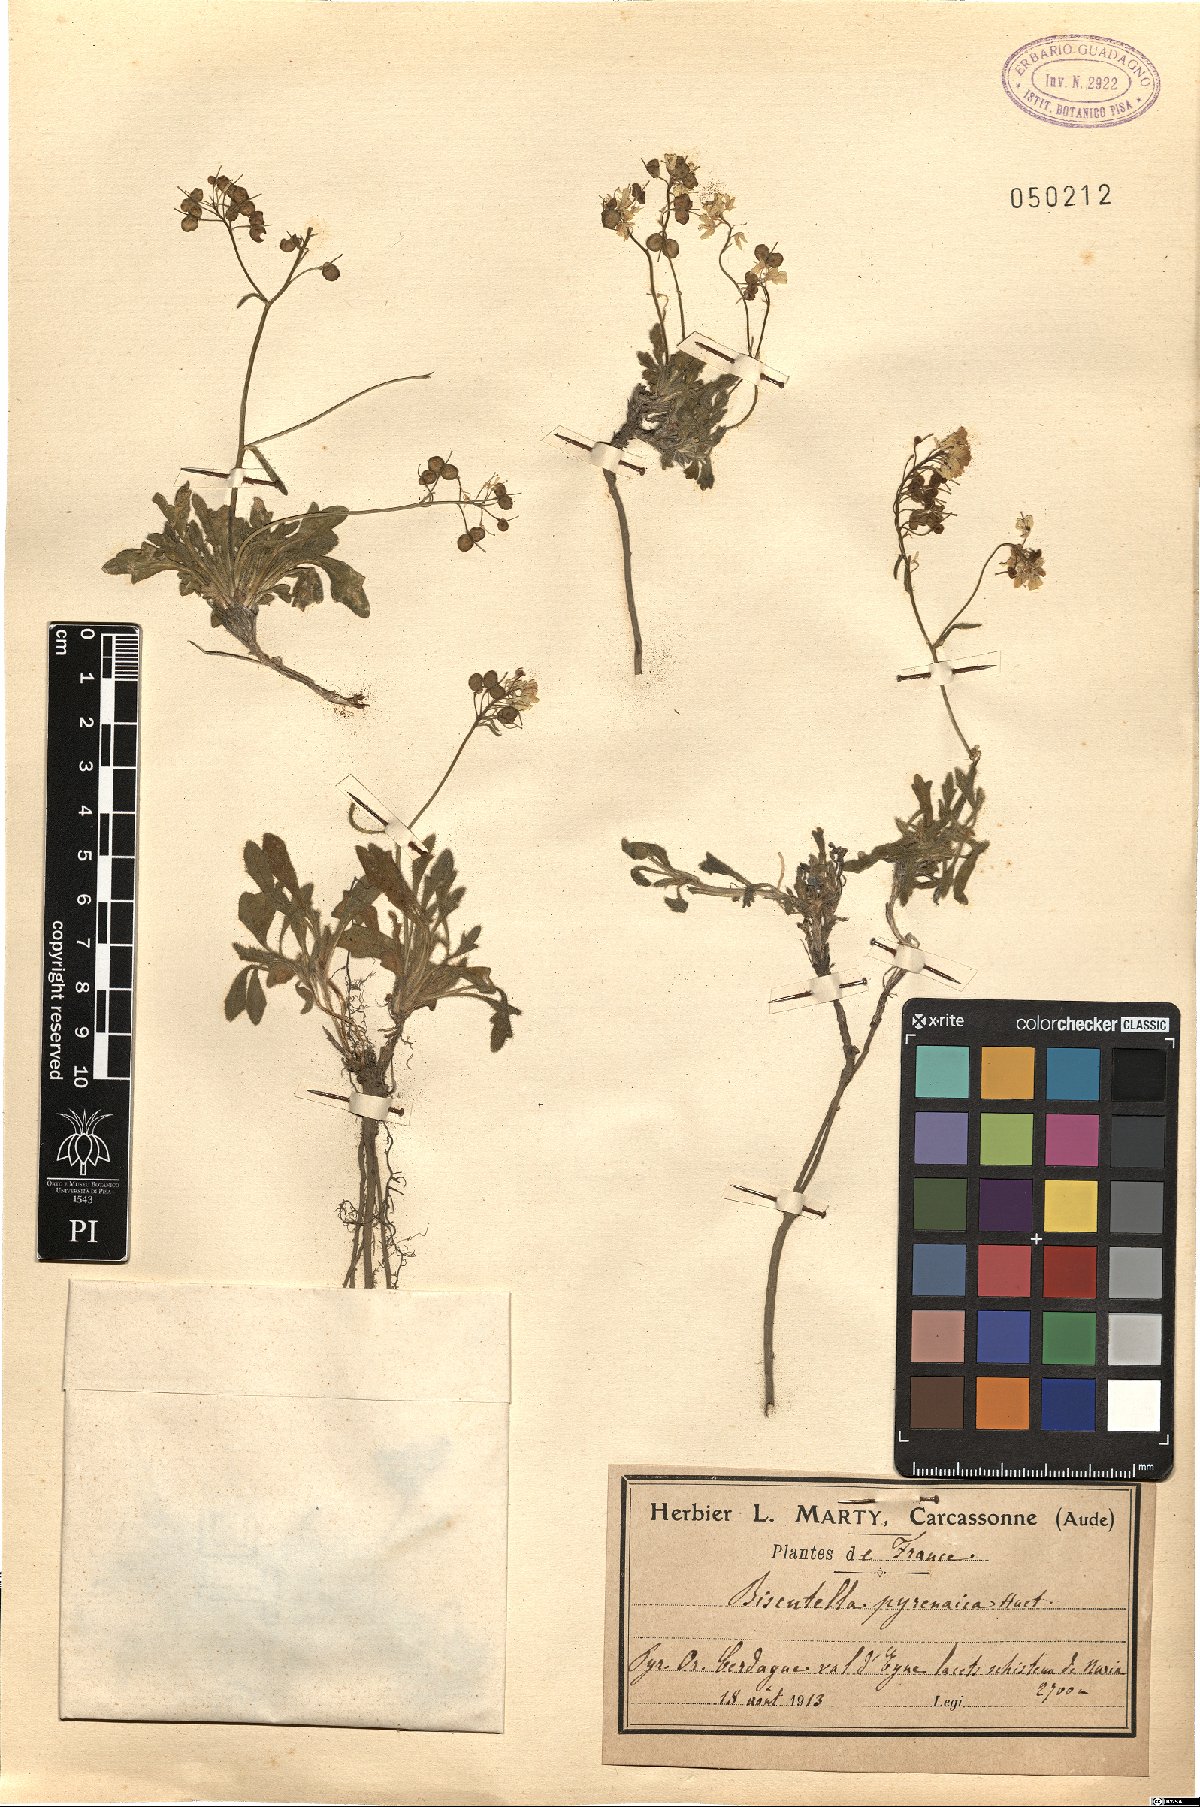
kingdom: Plantae
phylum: Tracheophyta
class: Magnoliopsida
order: Brassicales
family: Brassicaceae
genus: Biscutella
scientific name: Biscutella intermedia
